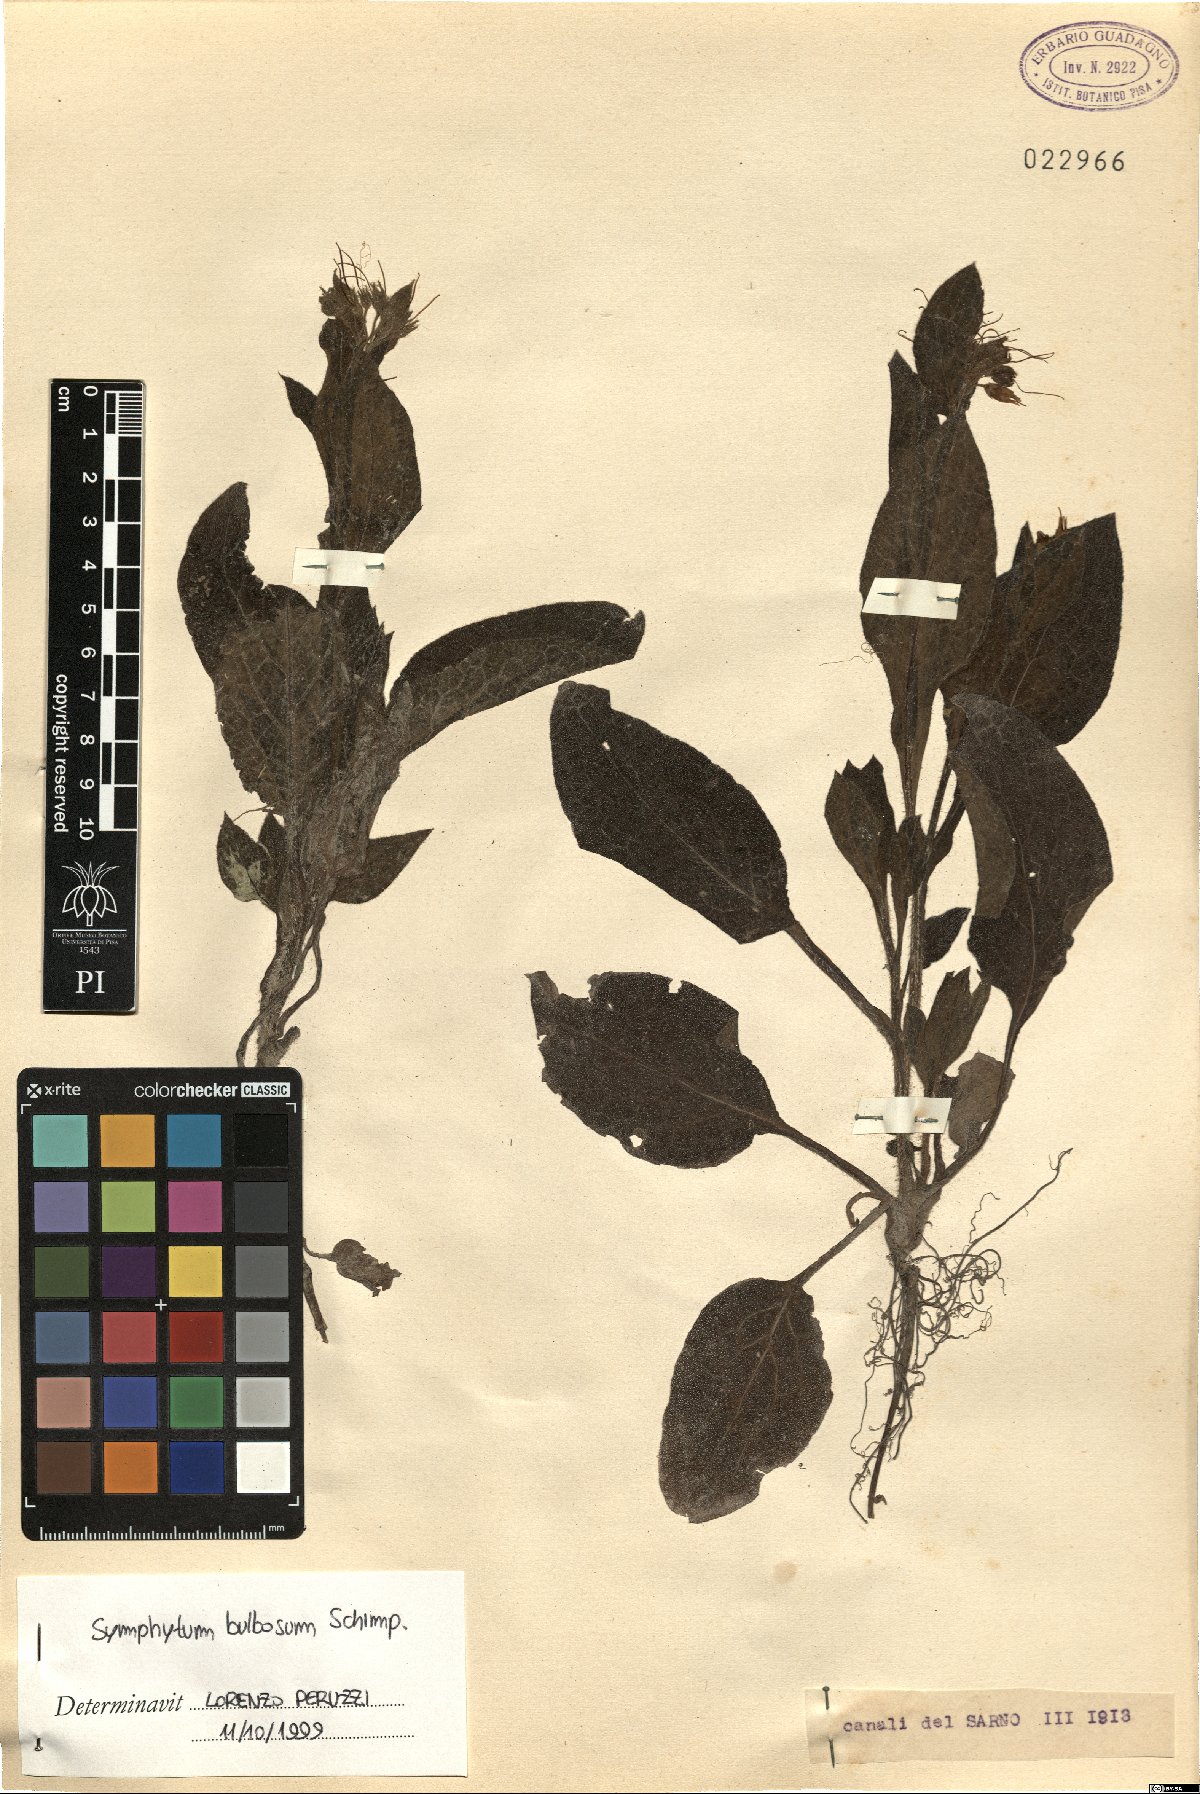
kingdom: Plantae
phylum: Tracheophyta
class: Magnoliopsida
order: Boraginales
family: Boraginaceae
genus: Symphytum
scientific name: Symphytum bulbosum
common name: Bulbous comfrey
